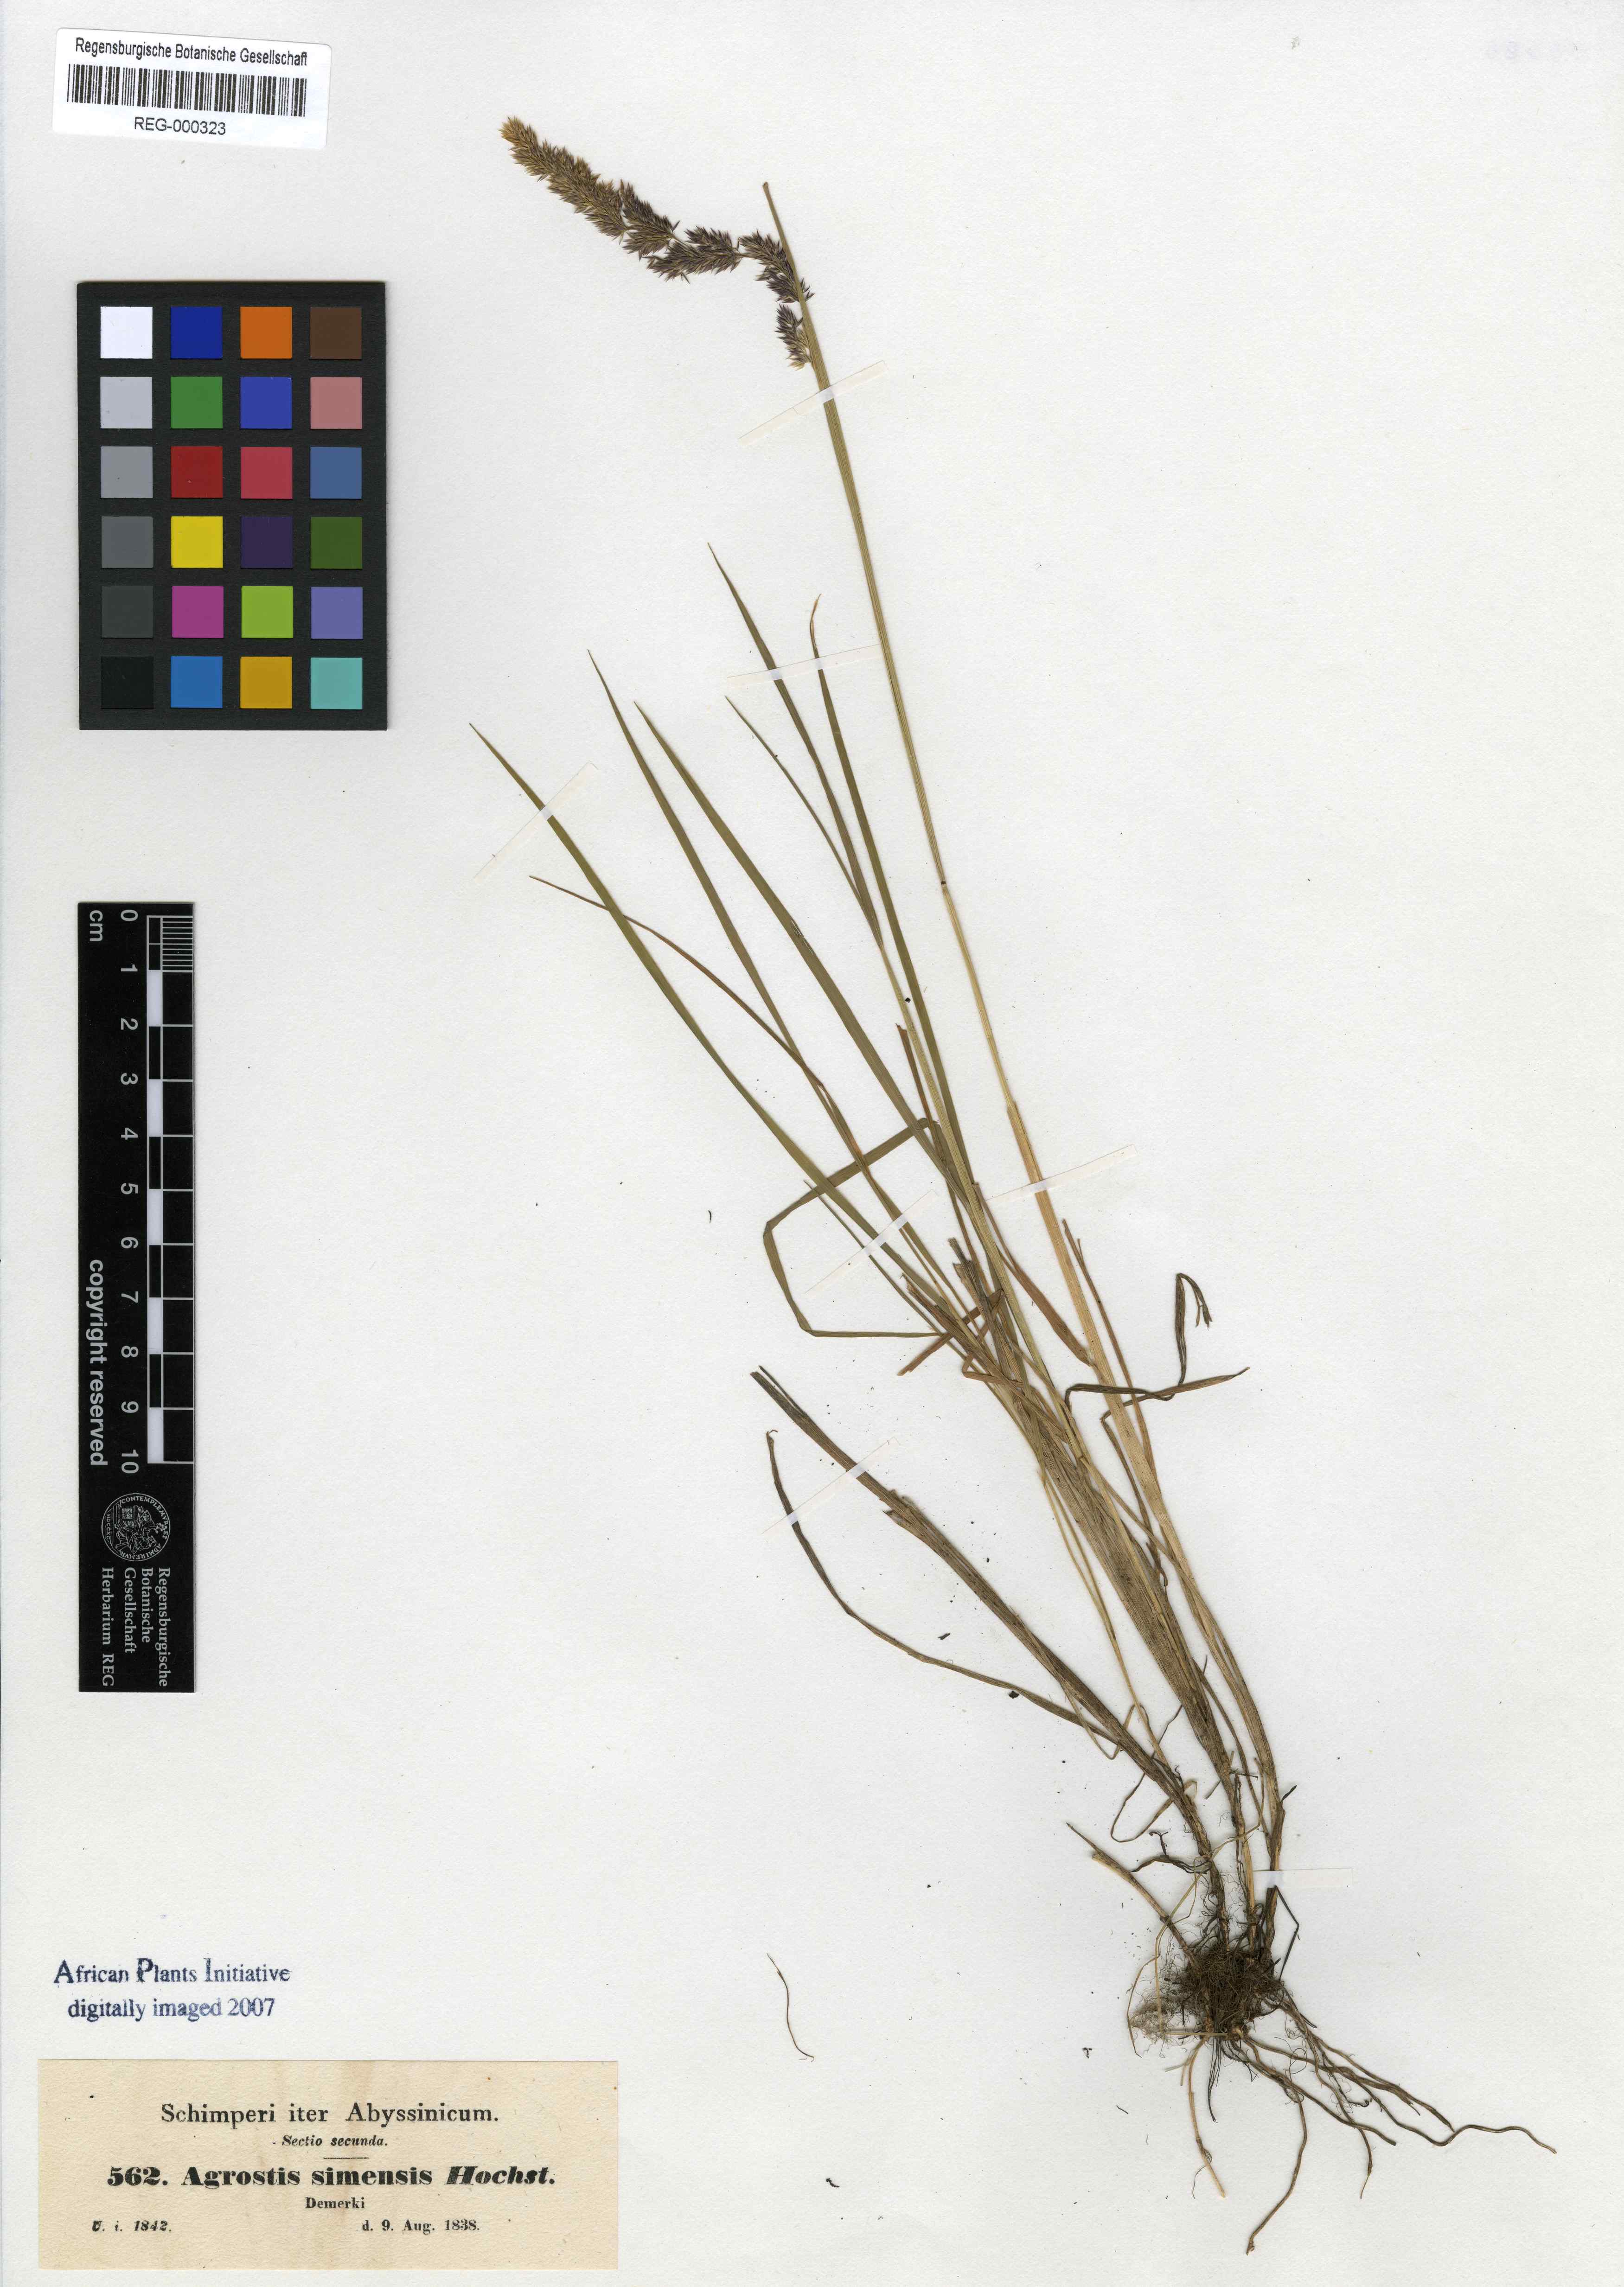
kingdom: Plantae
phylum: Tracheophyta
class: Liliopsida
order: Poales
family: Poaceae
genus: Polypogon
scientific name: Polypogon schimperianus
